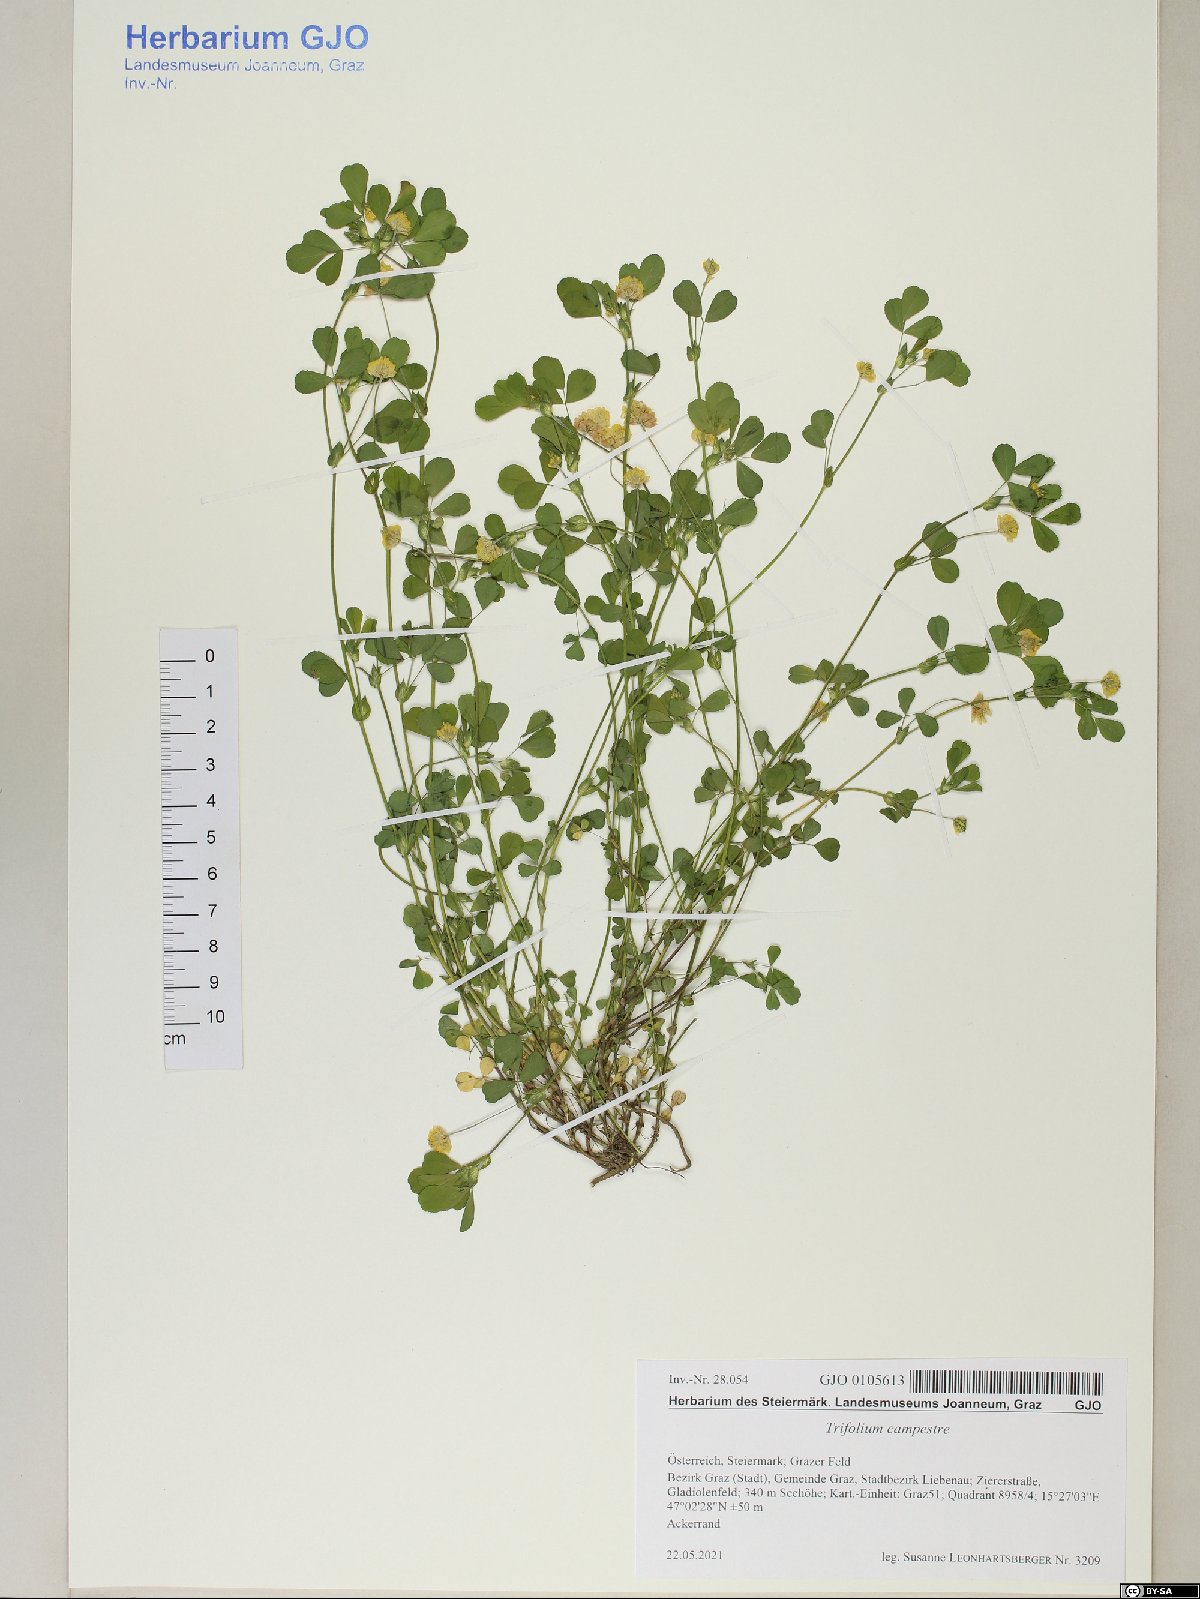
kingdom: Plantae
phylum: Tracheophyta
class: Magnoliopsida
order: Fabales
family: Fabaceae
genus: Trifolium
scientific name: Trifolium campestre
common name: Field clover
